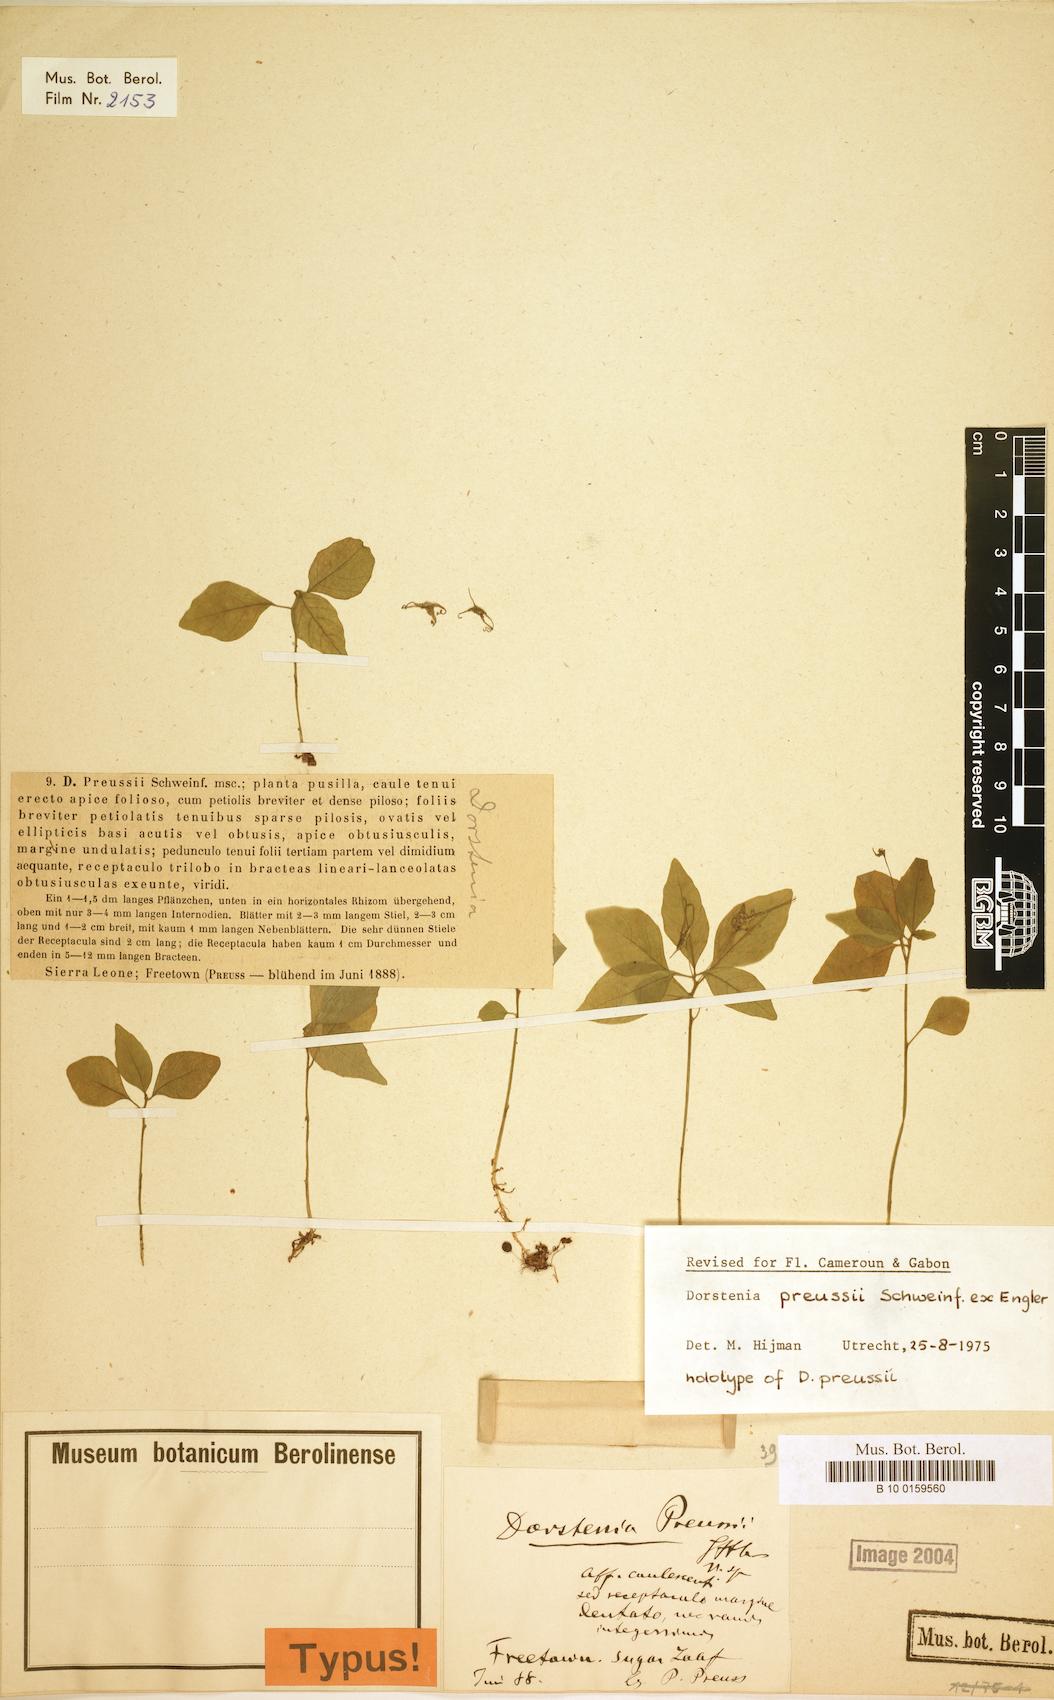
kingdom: Plantae
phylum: Tracheophyta
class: Magnoliopsida
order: Rosales
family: Moraceae
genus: Dorstenia
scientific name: Dorstenia cuspidata
